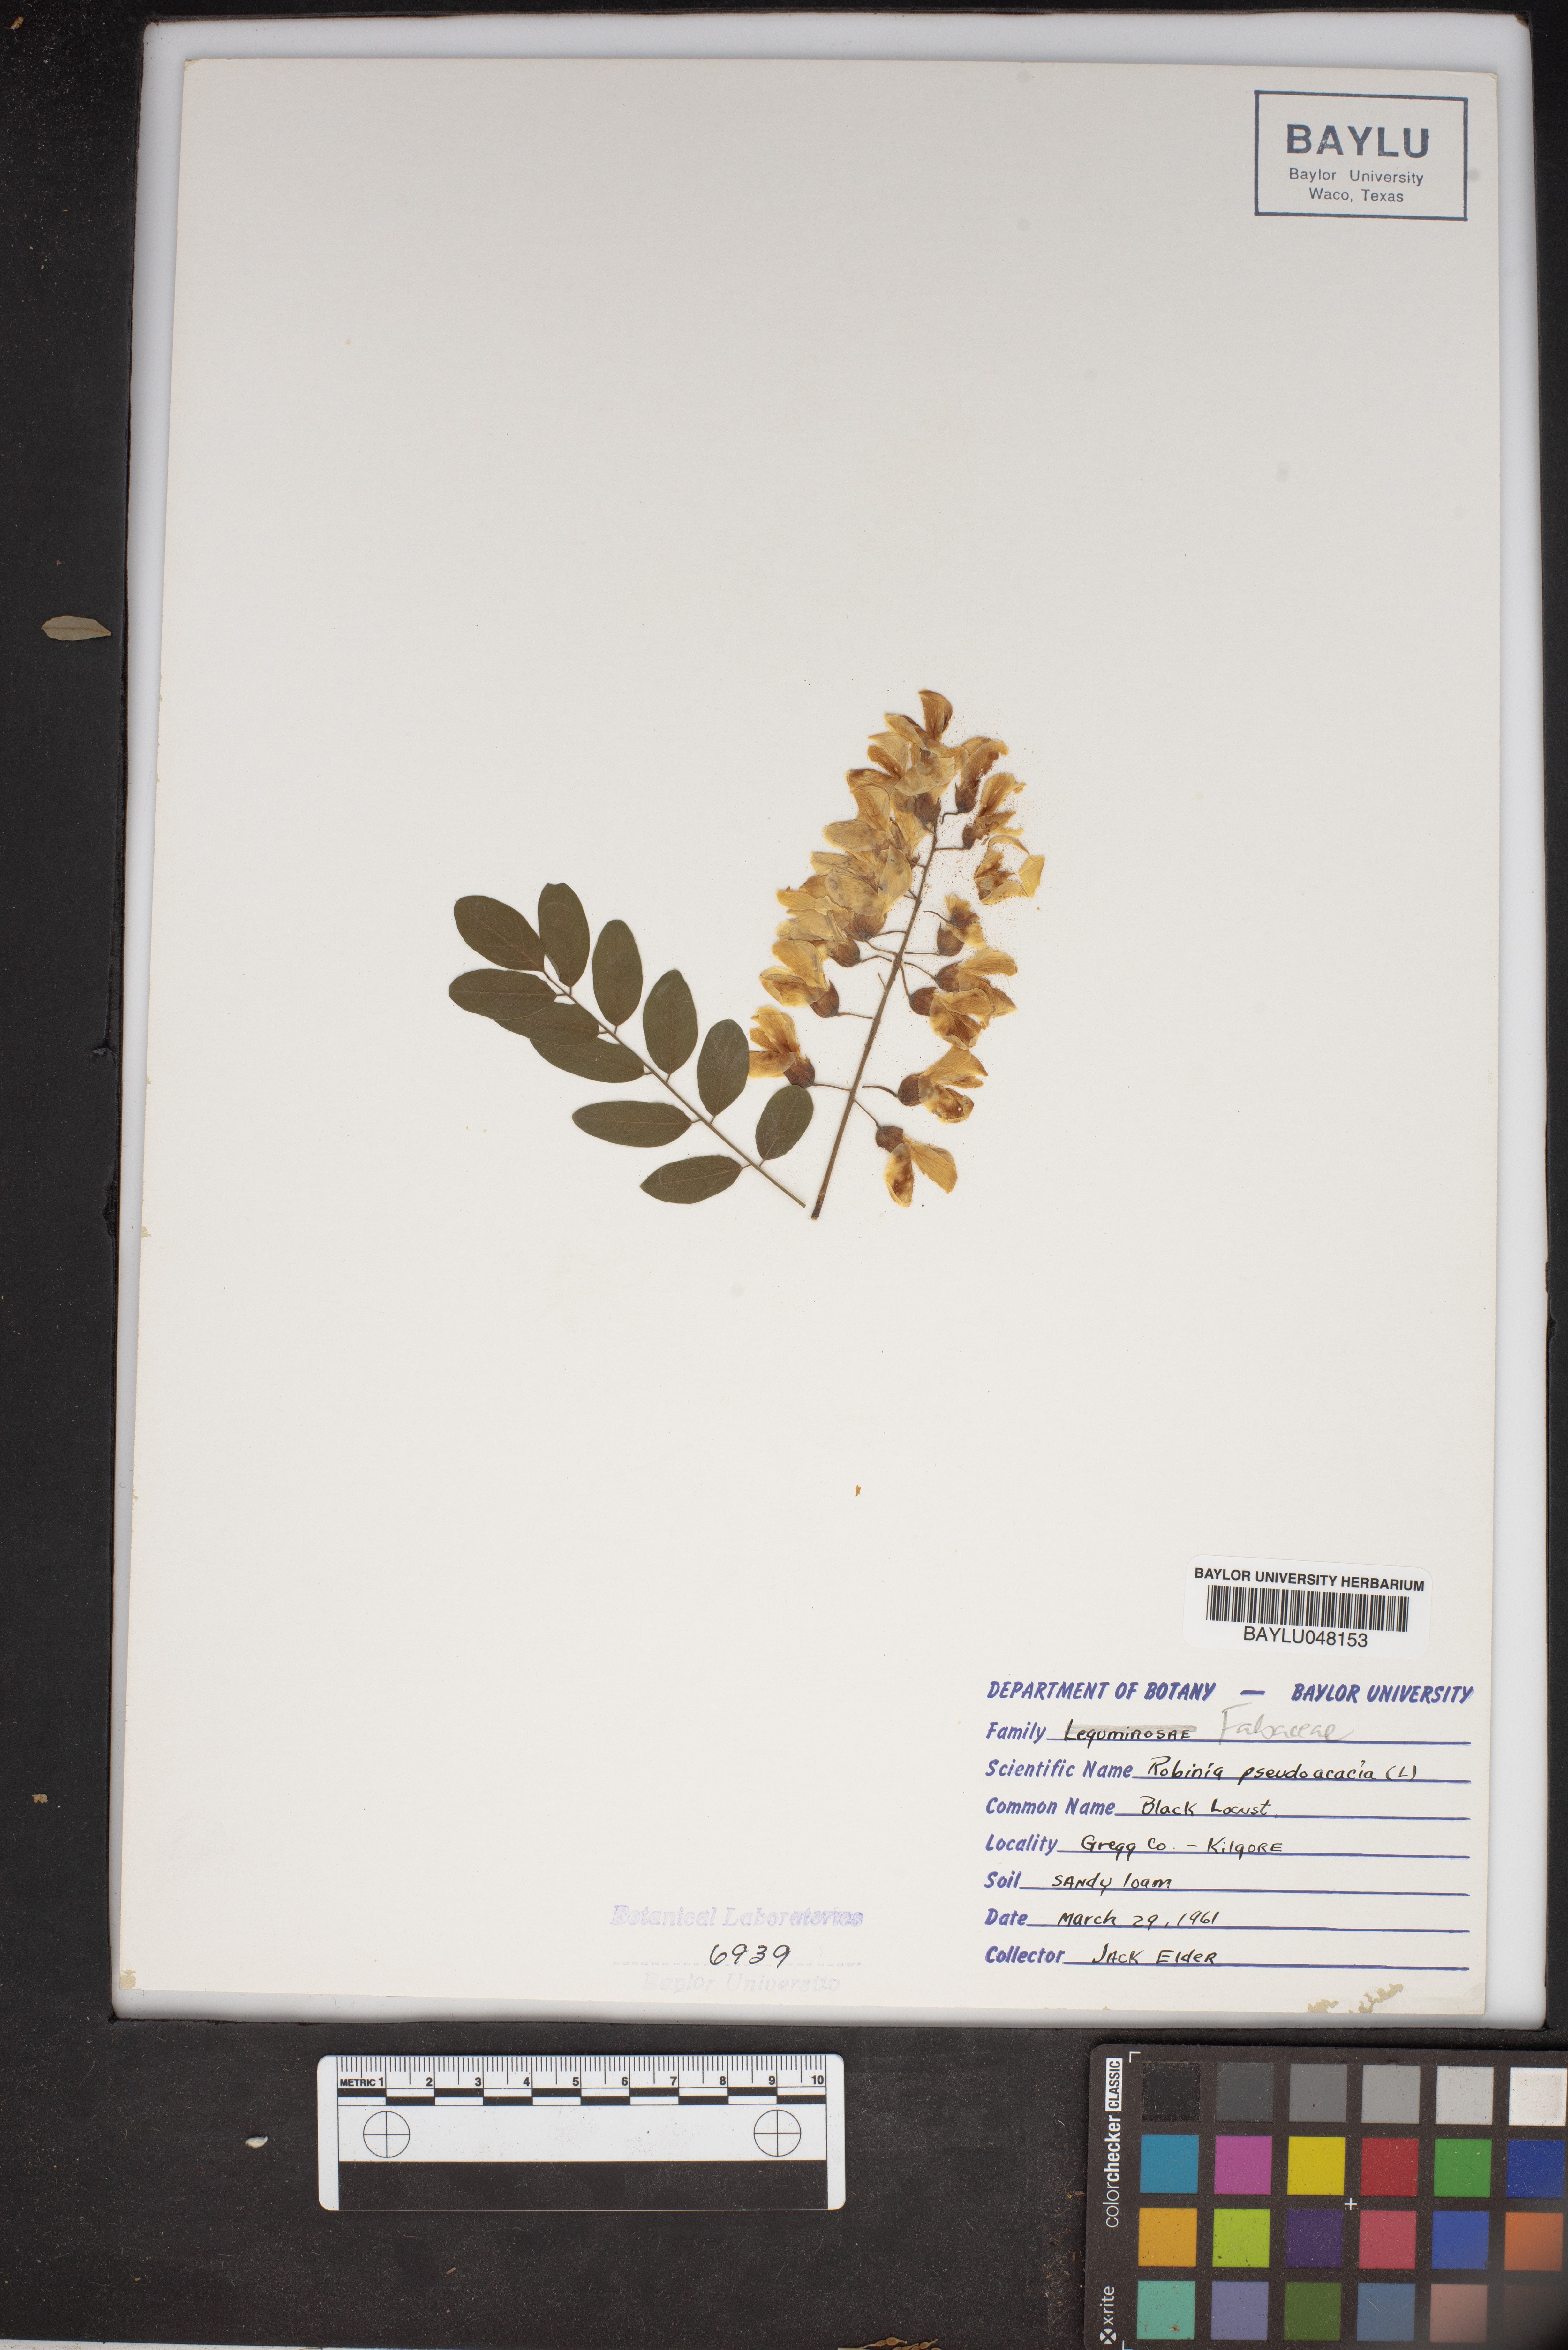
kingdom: Plantae
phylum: Tracheophyta
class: Magnoliopsida
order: Fabales
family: Fabaceae
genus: Robinia
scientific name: Robinia pseudoacacia
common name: Black locust
